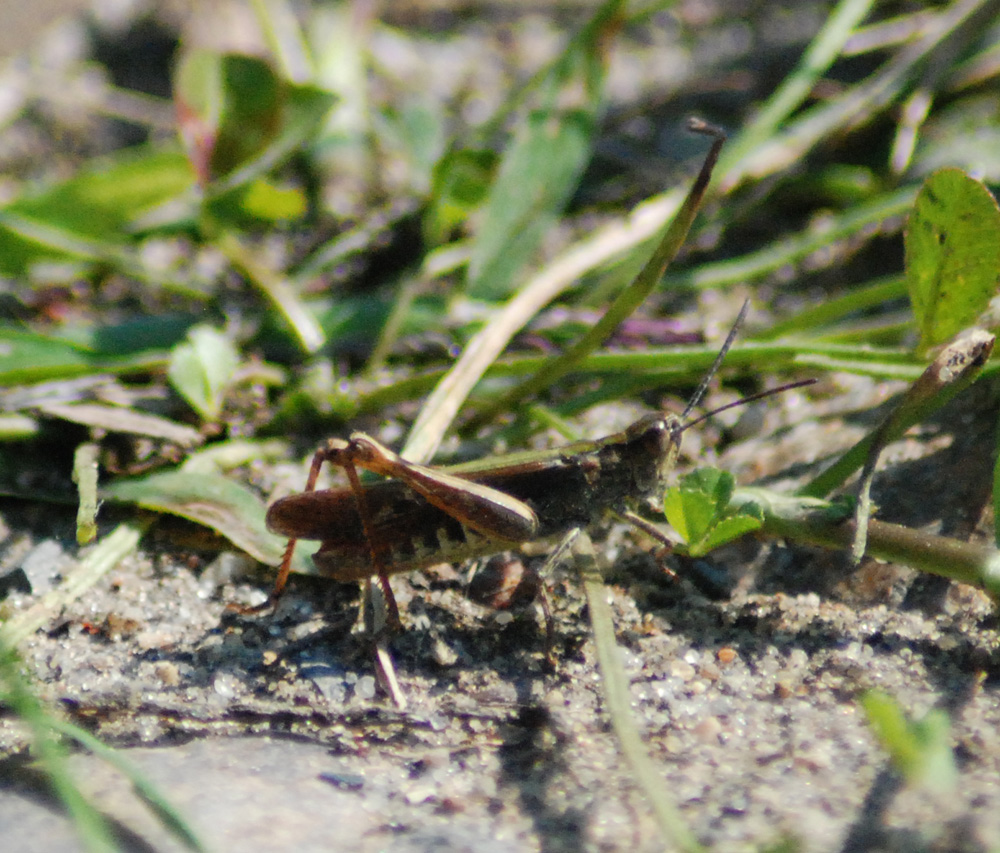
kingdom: Animalia
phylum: Arthropoda
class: Insecta
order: Orthoptera
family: Acrididae
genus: Chorthippus
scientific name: Chorthippus brunneus
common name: Field grasshopper
